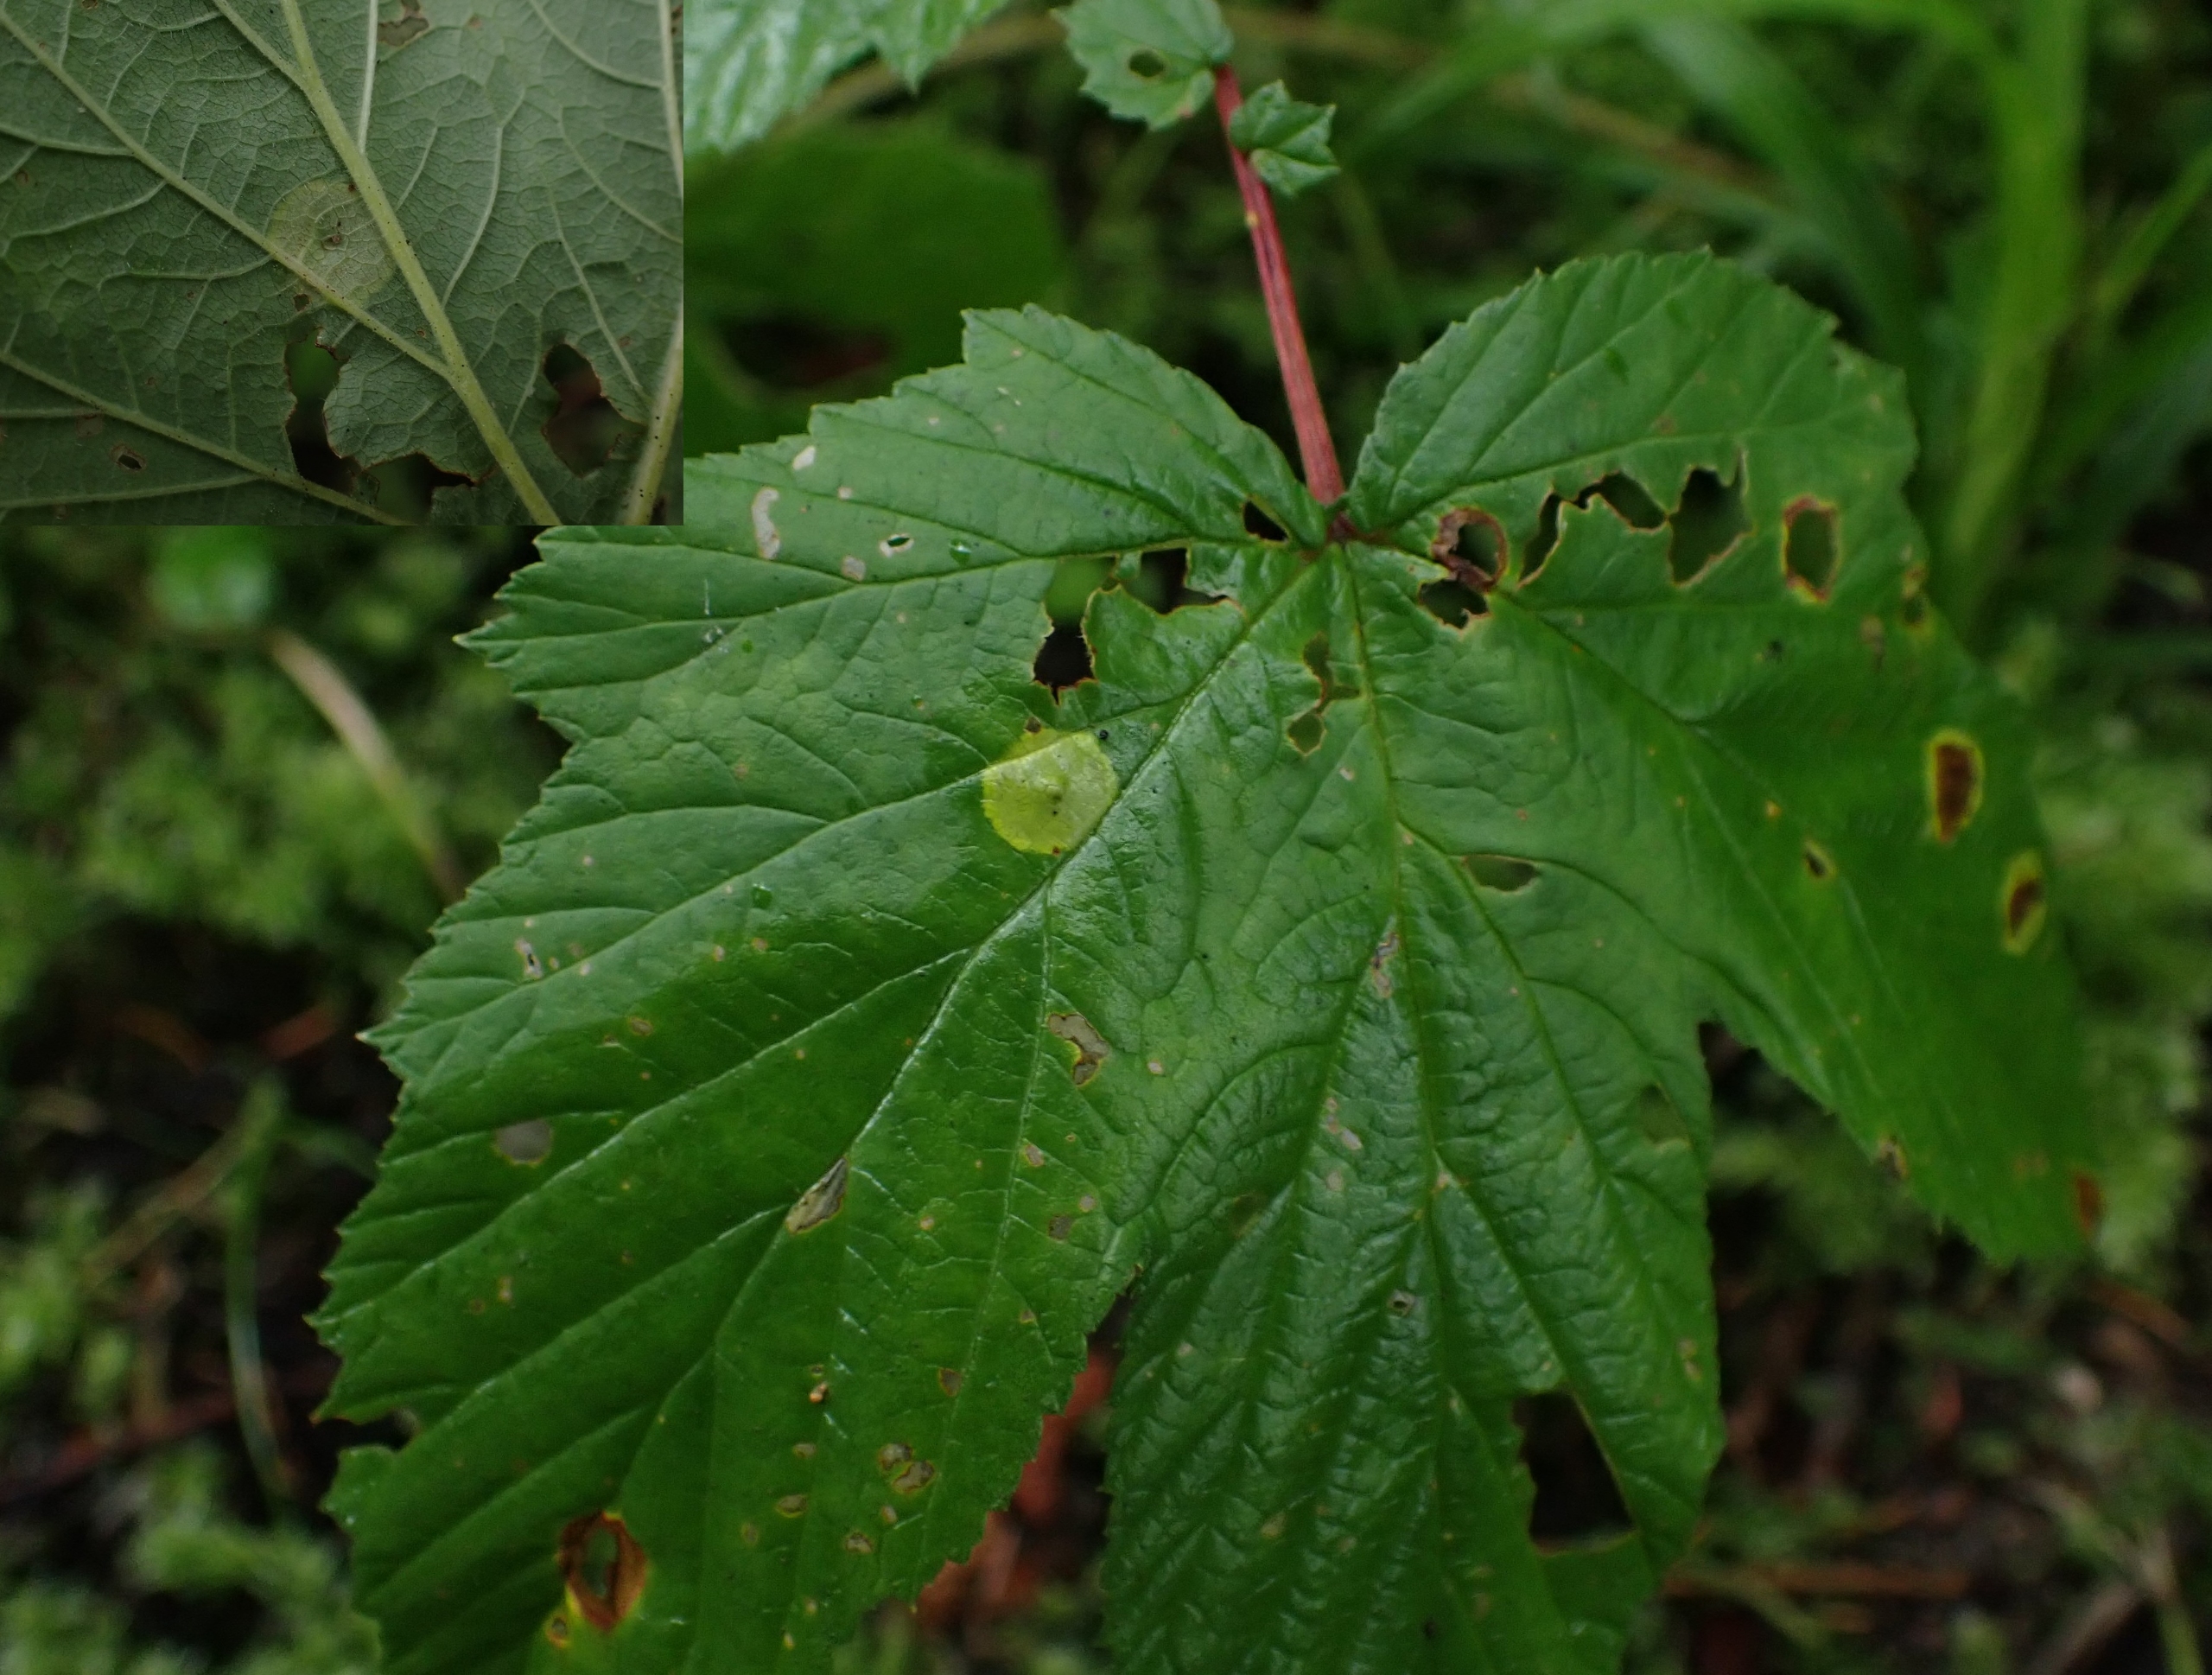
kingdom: Animalia
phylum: Arthropoda
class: Insecta
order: Diptera
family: Cecidomyiidae
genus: Dasineura
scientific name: Dasineura pustulans
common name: Mjødurtblistgalmyg
